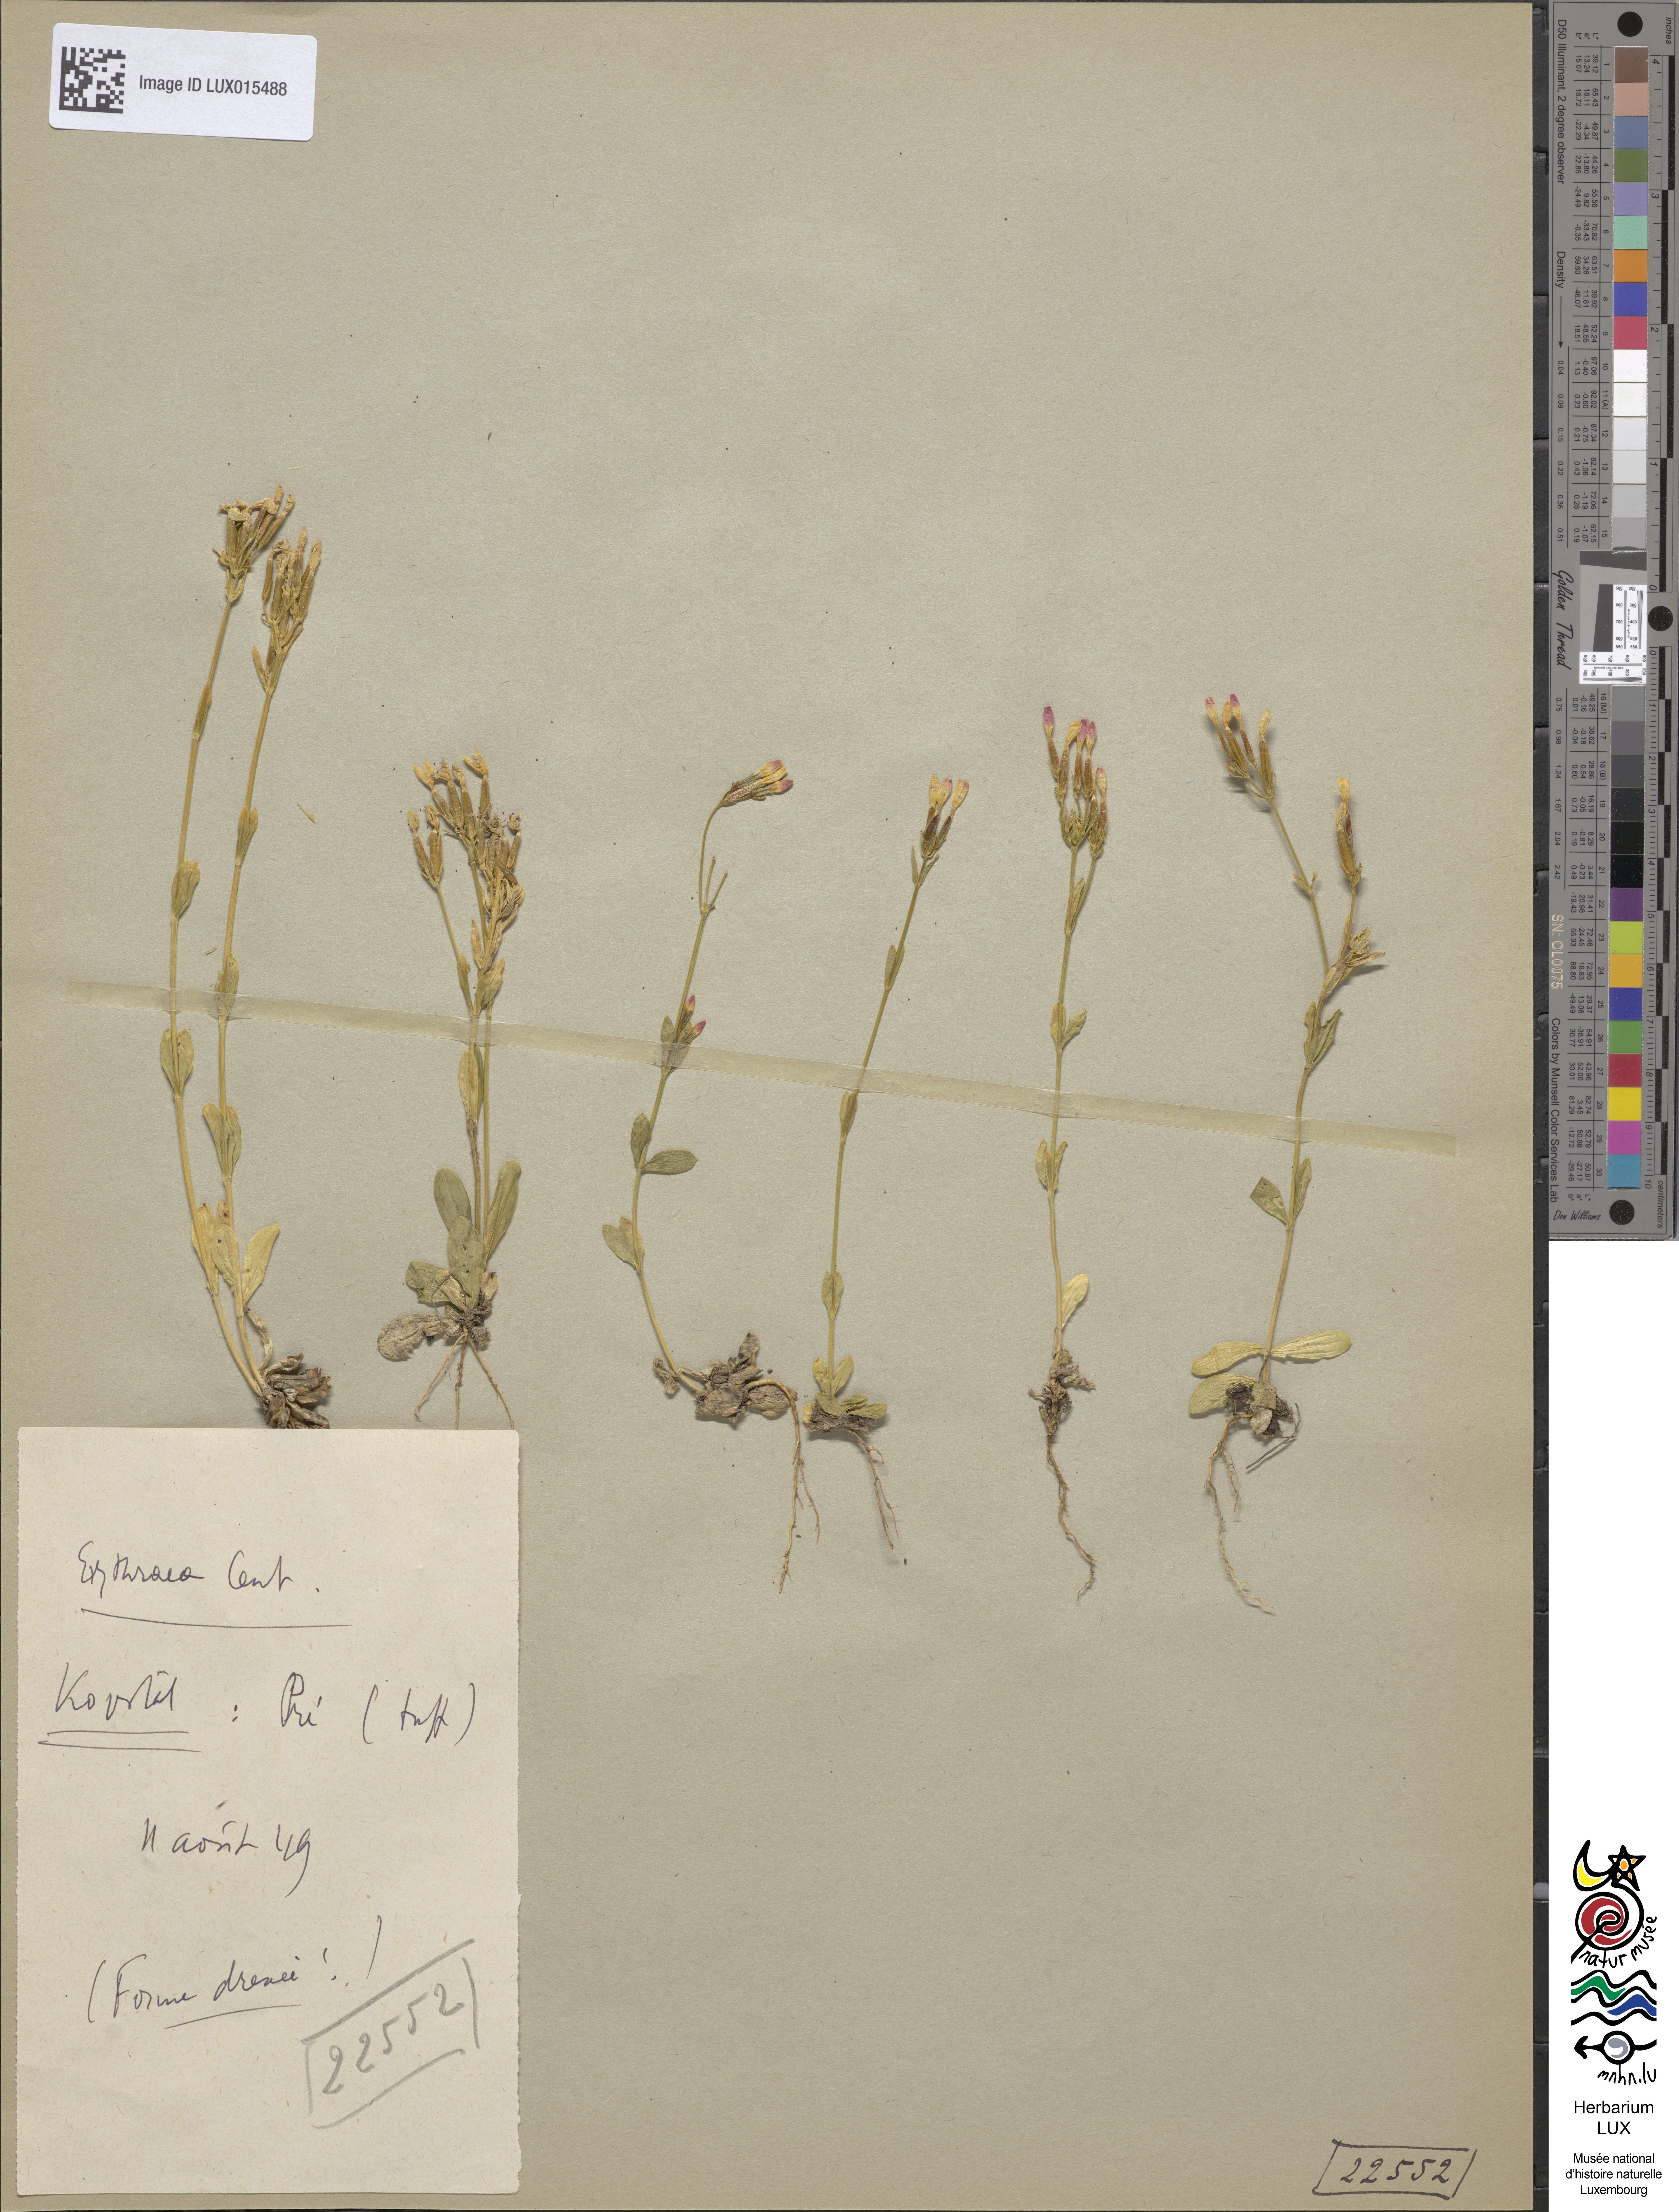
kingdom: Plantae
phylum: Tracheophyta
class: Magnoliopsida
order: Gentianales
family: Gentianaceae
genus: Centaurium
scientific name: Centaurium erythraea
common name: Common centaury
